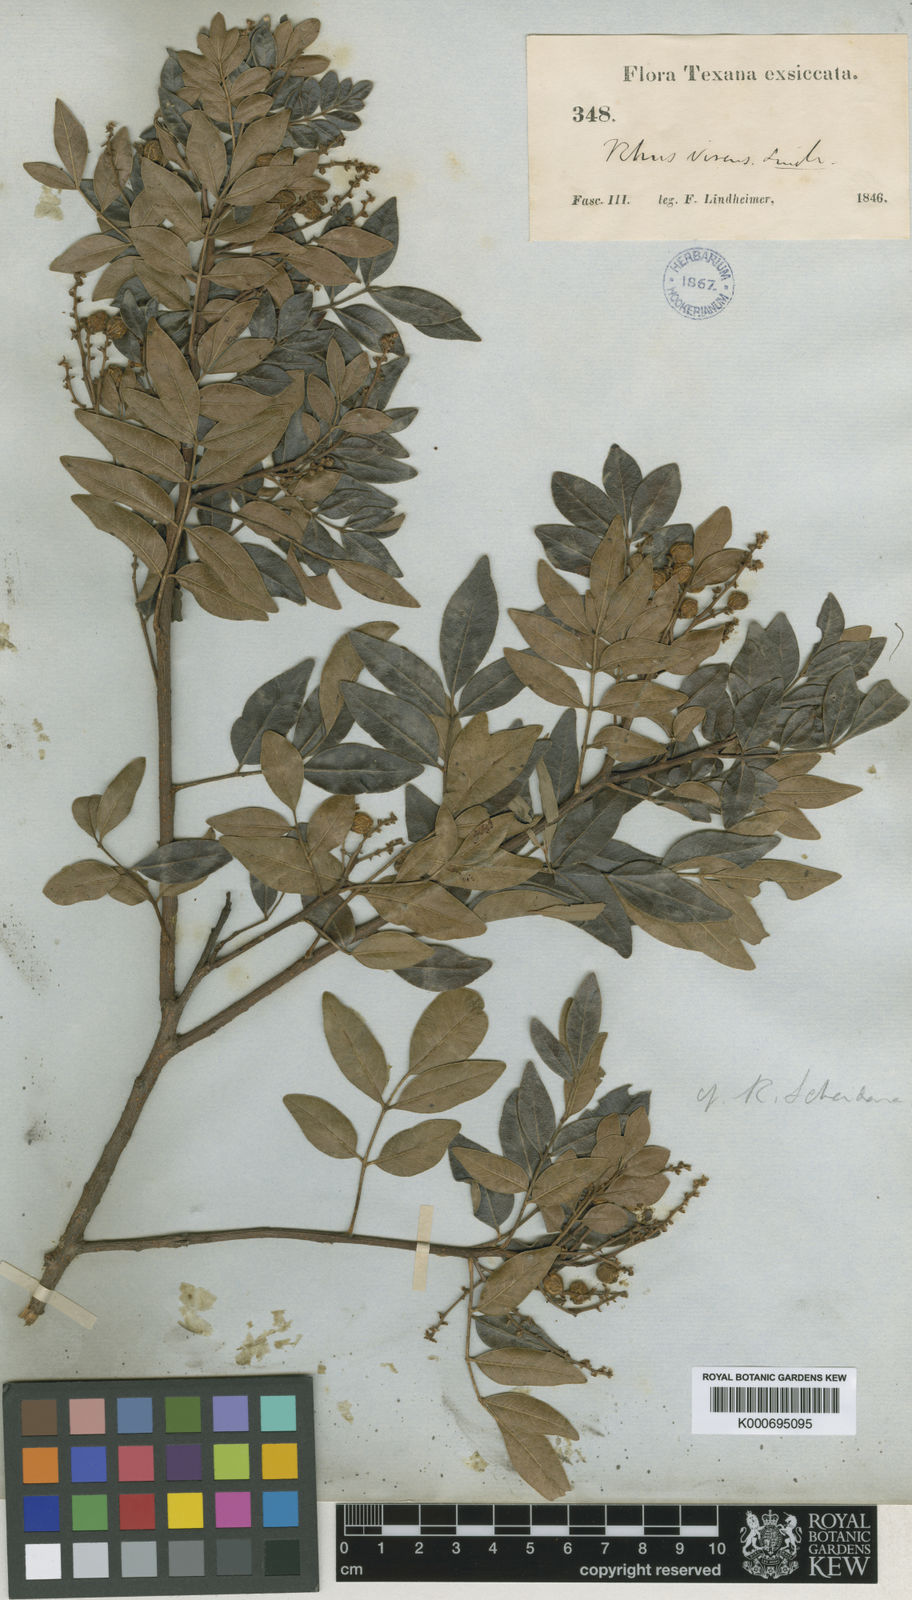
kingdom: Plantae
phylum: Tracheophyta
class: Magnoliopsida
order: Sapindales
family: Anacardiaceae
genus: Rhus
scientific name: Rhus virens
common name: Evergreen sumac
